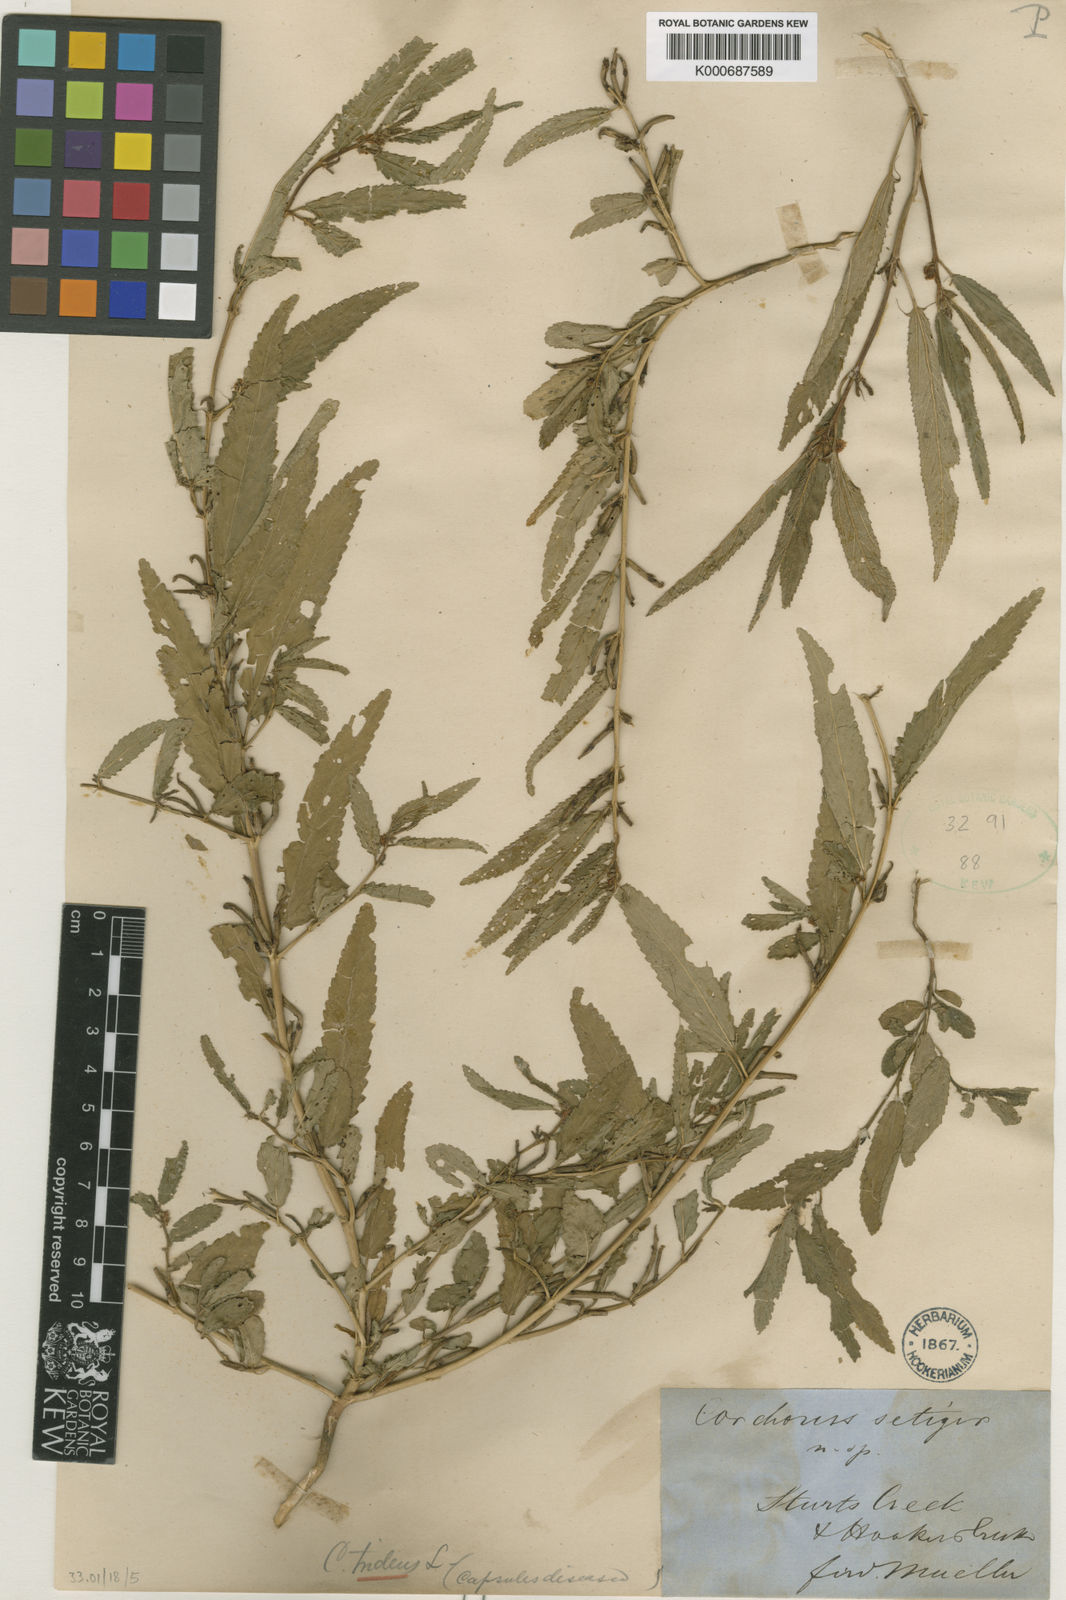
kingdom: Plantae
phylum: Tracheophyta
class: Magnoliopsida
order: Malvales
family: Malvaceae
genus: Corchorus
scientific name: Corchorus tridens
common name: Wild jute
